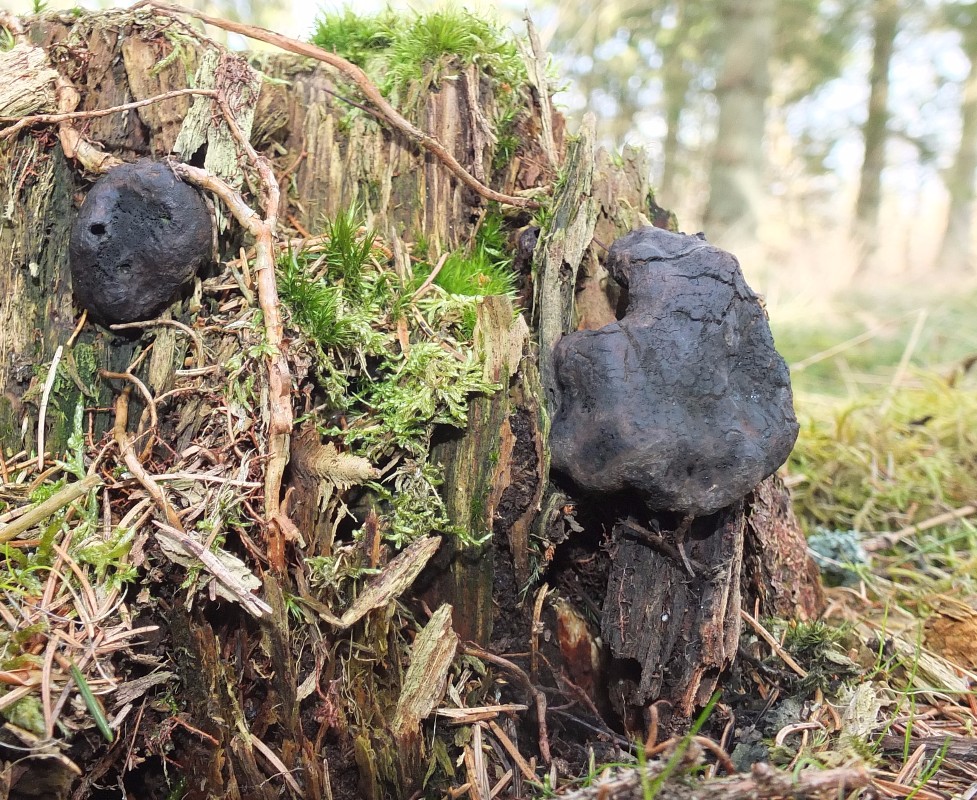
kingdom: Fungi
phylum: Ascomycota
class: Sordariomycetes
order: Boliniales
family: Boliniaceae
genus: Camarops
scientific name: Camarops tubulina
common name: knudret kulsnegl
